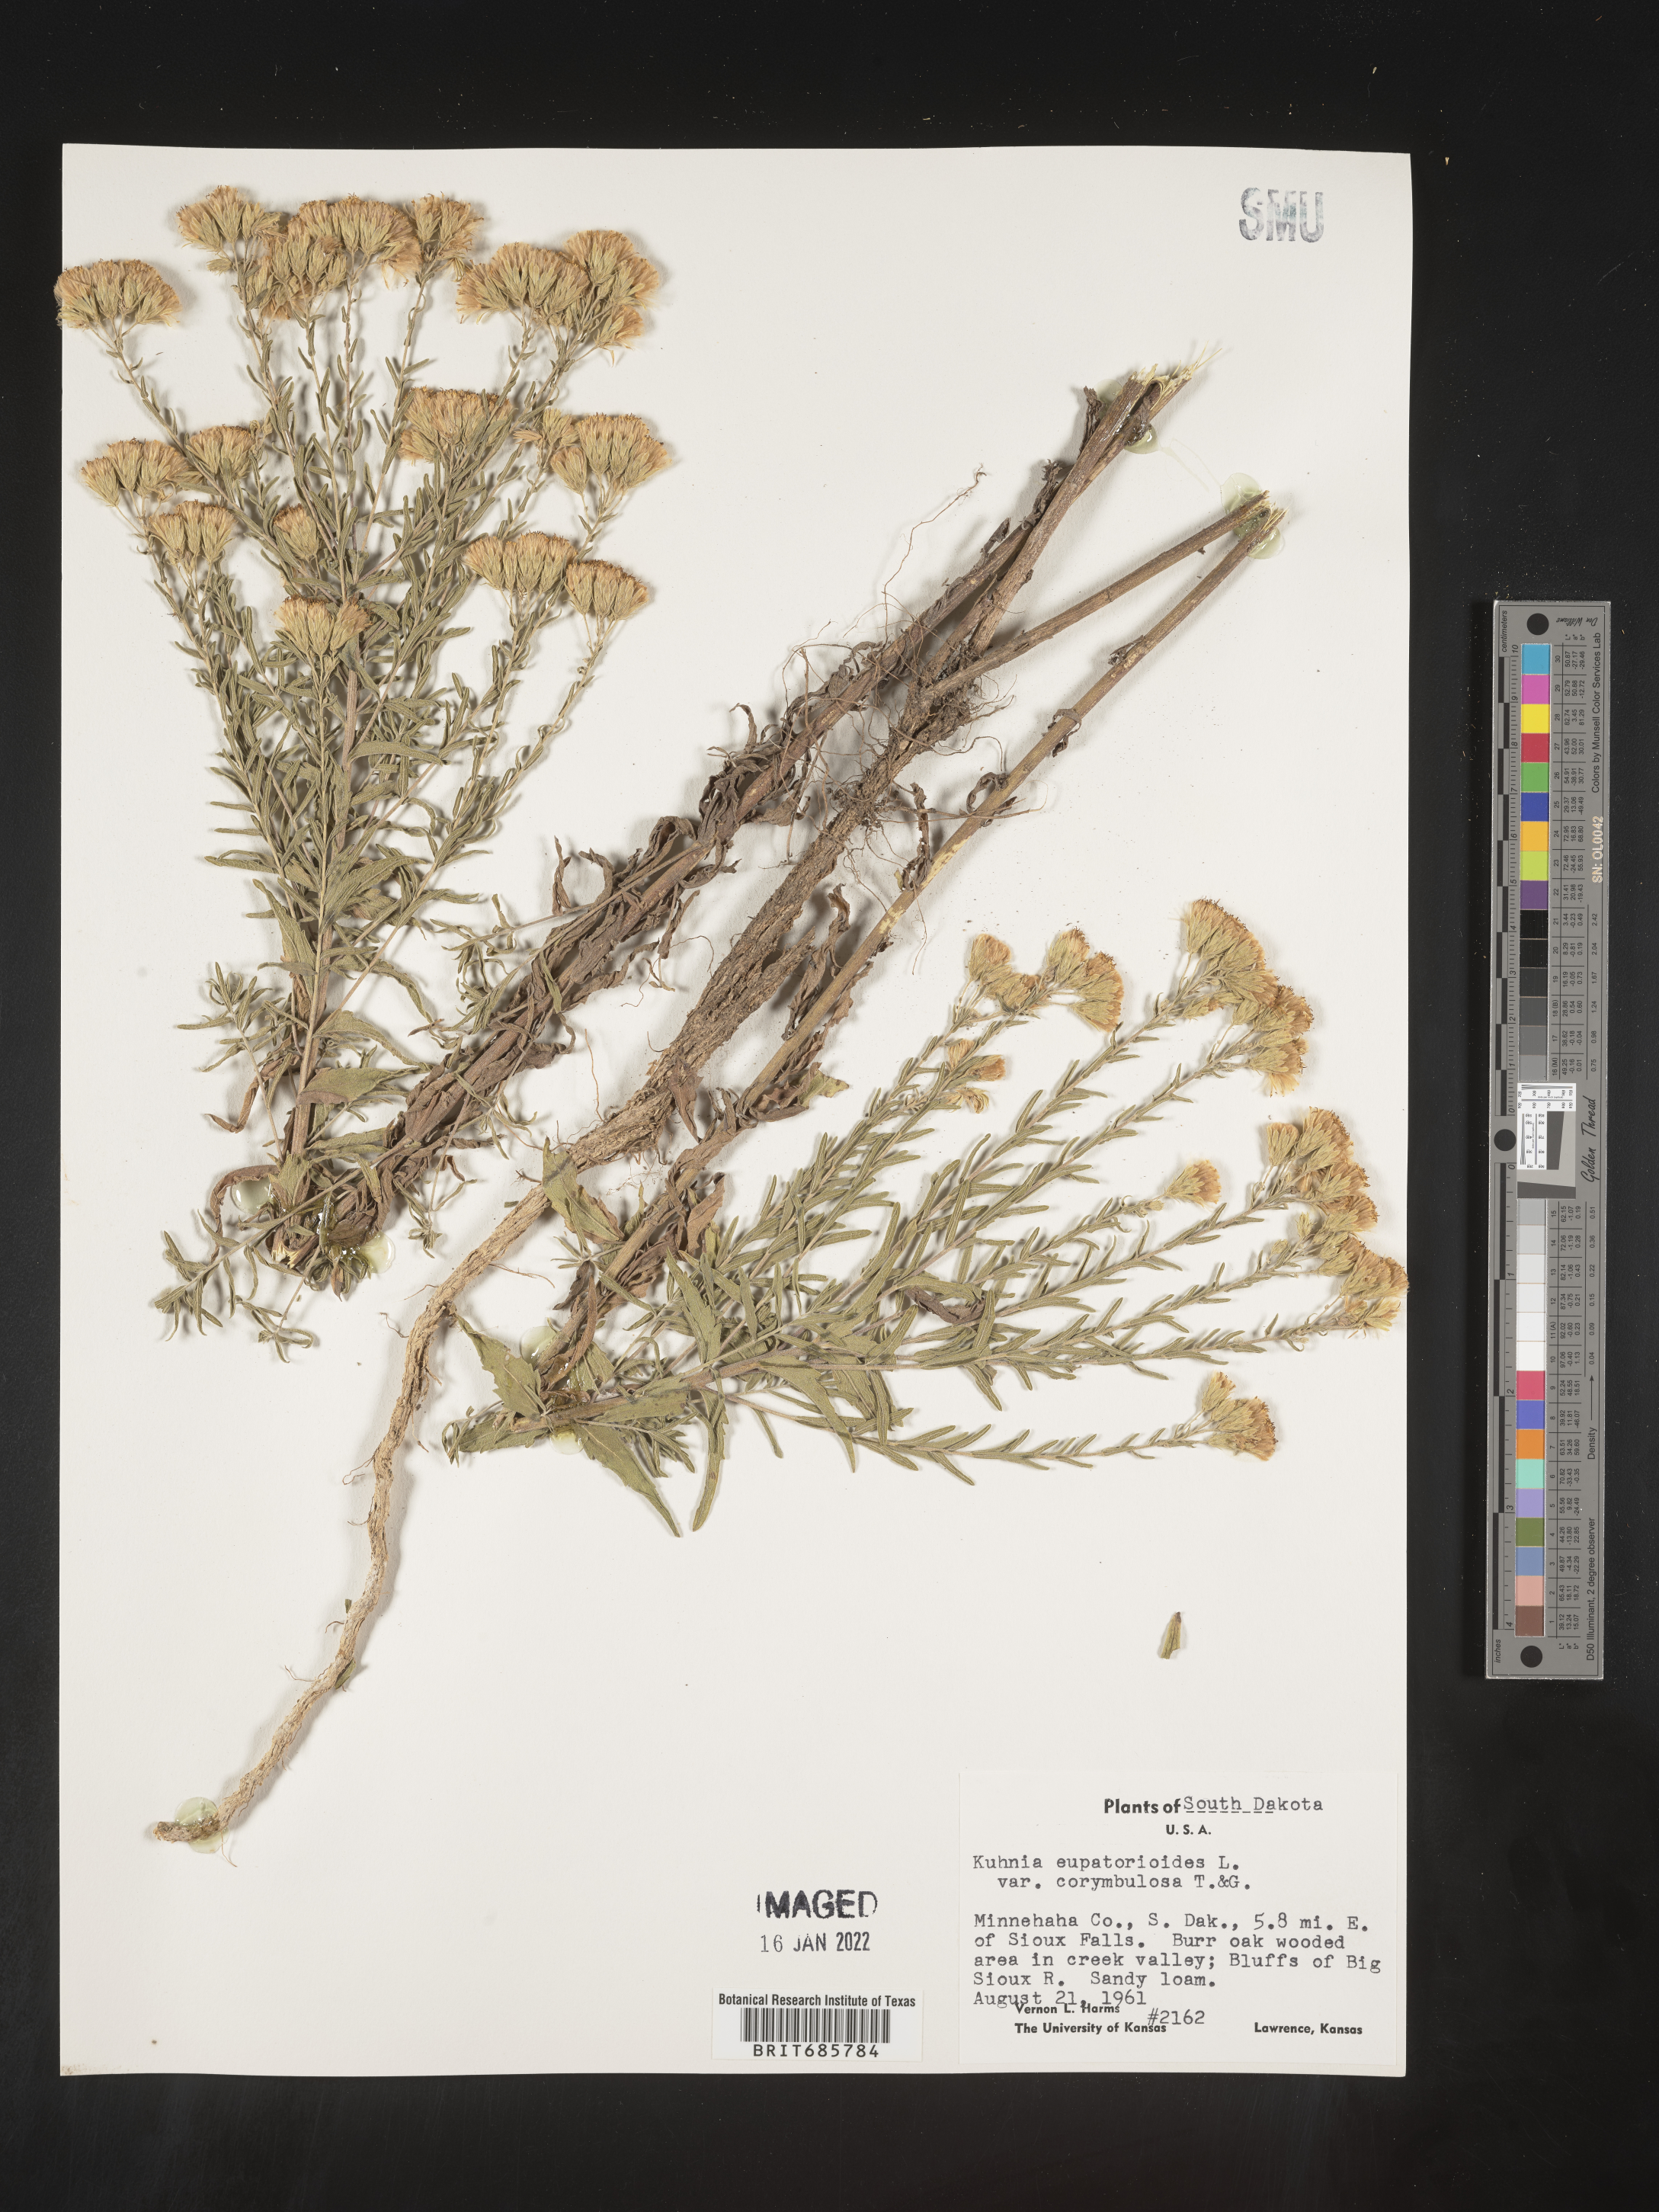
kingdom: Plantae
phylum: Tracheophyta
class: Magnoliopsida
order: Asterales
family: Asteraceae
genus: Brickellia
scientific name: Brickellia eupatorioides
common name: False boneset
